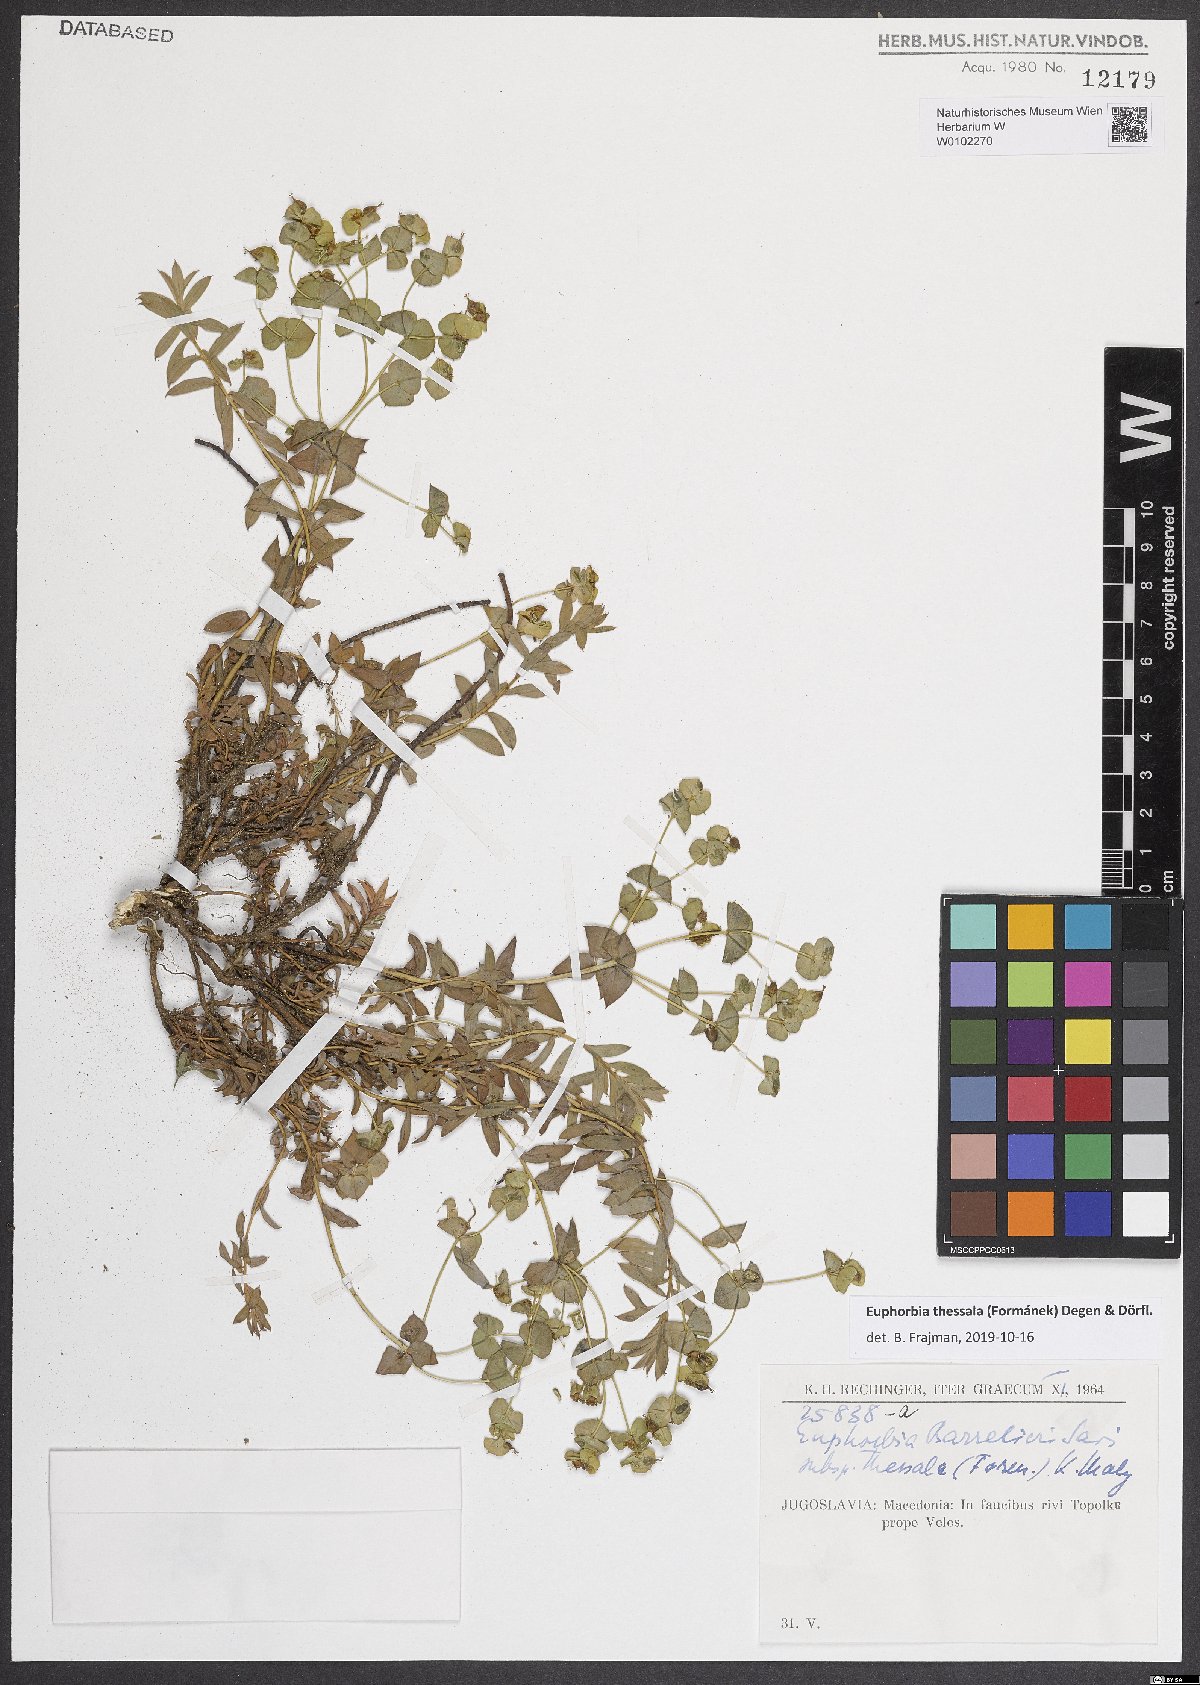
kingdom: Plantae
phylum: Tracheophyta
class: Magnoliopsida
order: Malpighiales
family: Euphorbiaceae
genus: Euphorbia
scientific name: Euphorbia barrelieri
